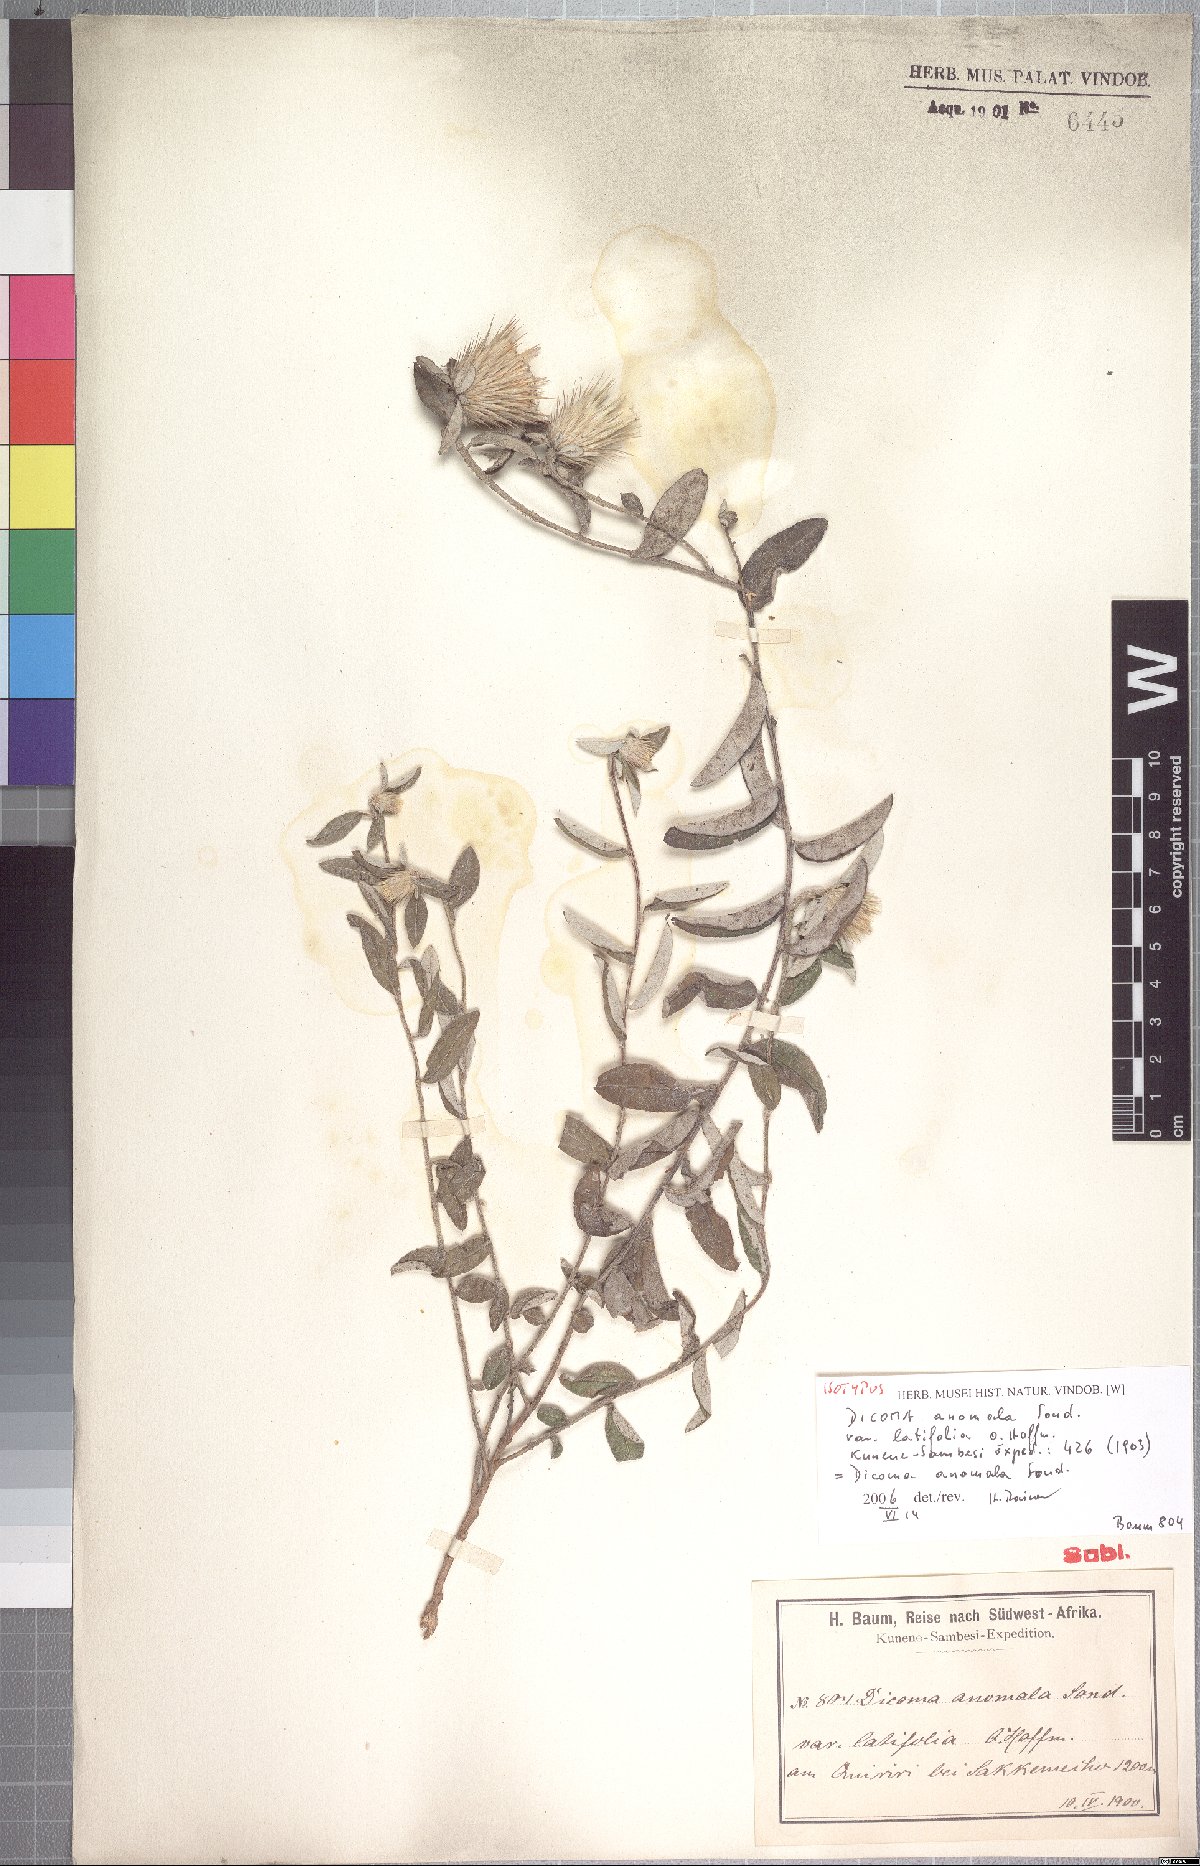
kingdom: Plantae
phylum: Tracheophyta
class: Magnoliopsida
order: Asterales
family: Asteraceae
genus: Dicoma
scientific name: Dicoma anomala
